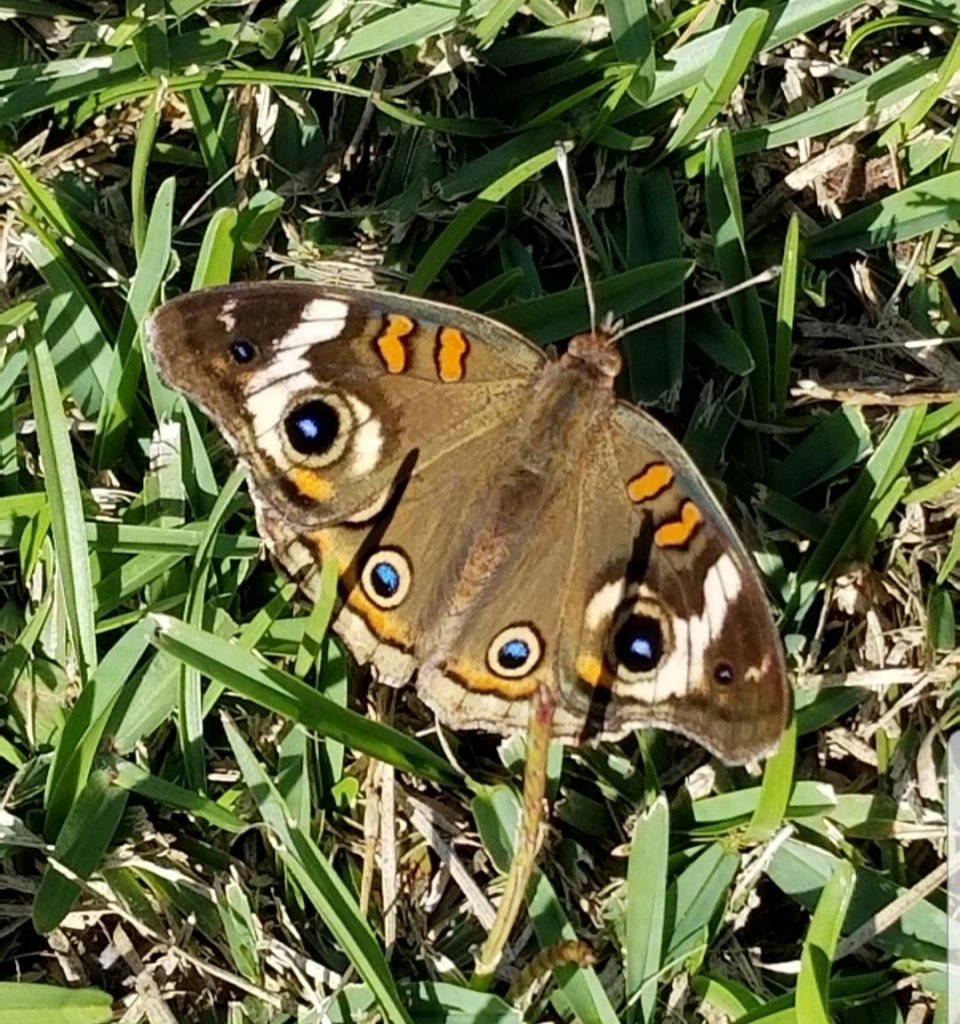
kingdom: Animalia
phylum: Arthropoda
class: Insecta
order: Lepidoptera
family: Nymphalidae
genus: Junonia
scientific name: Junonia coenia
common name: Common Buckeye
